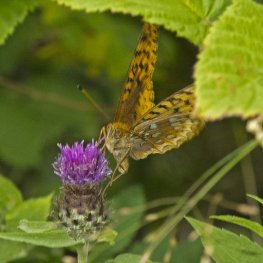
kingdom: Animalia
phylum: Arthropoda
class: Insecta
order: Lepidoptera
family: Nymphalidae
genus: Speyeria
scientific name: Speyeria cybele
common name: Great Spangled Fritillary
